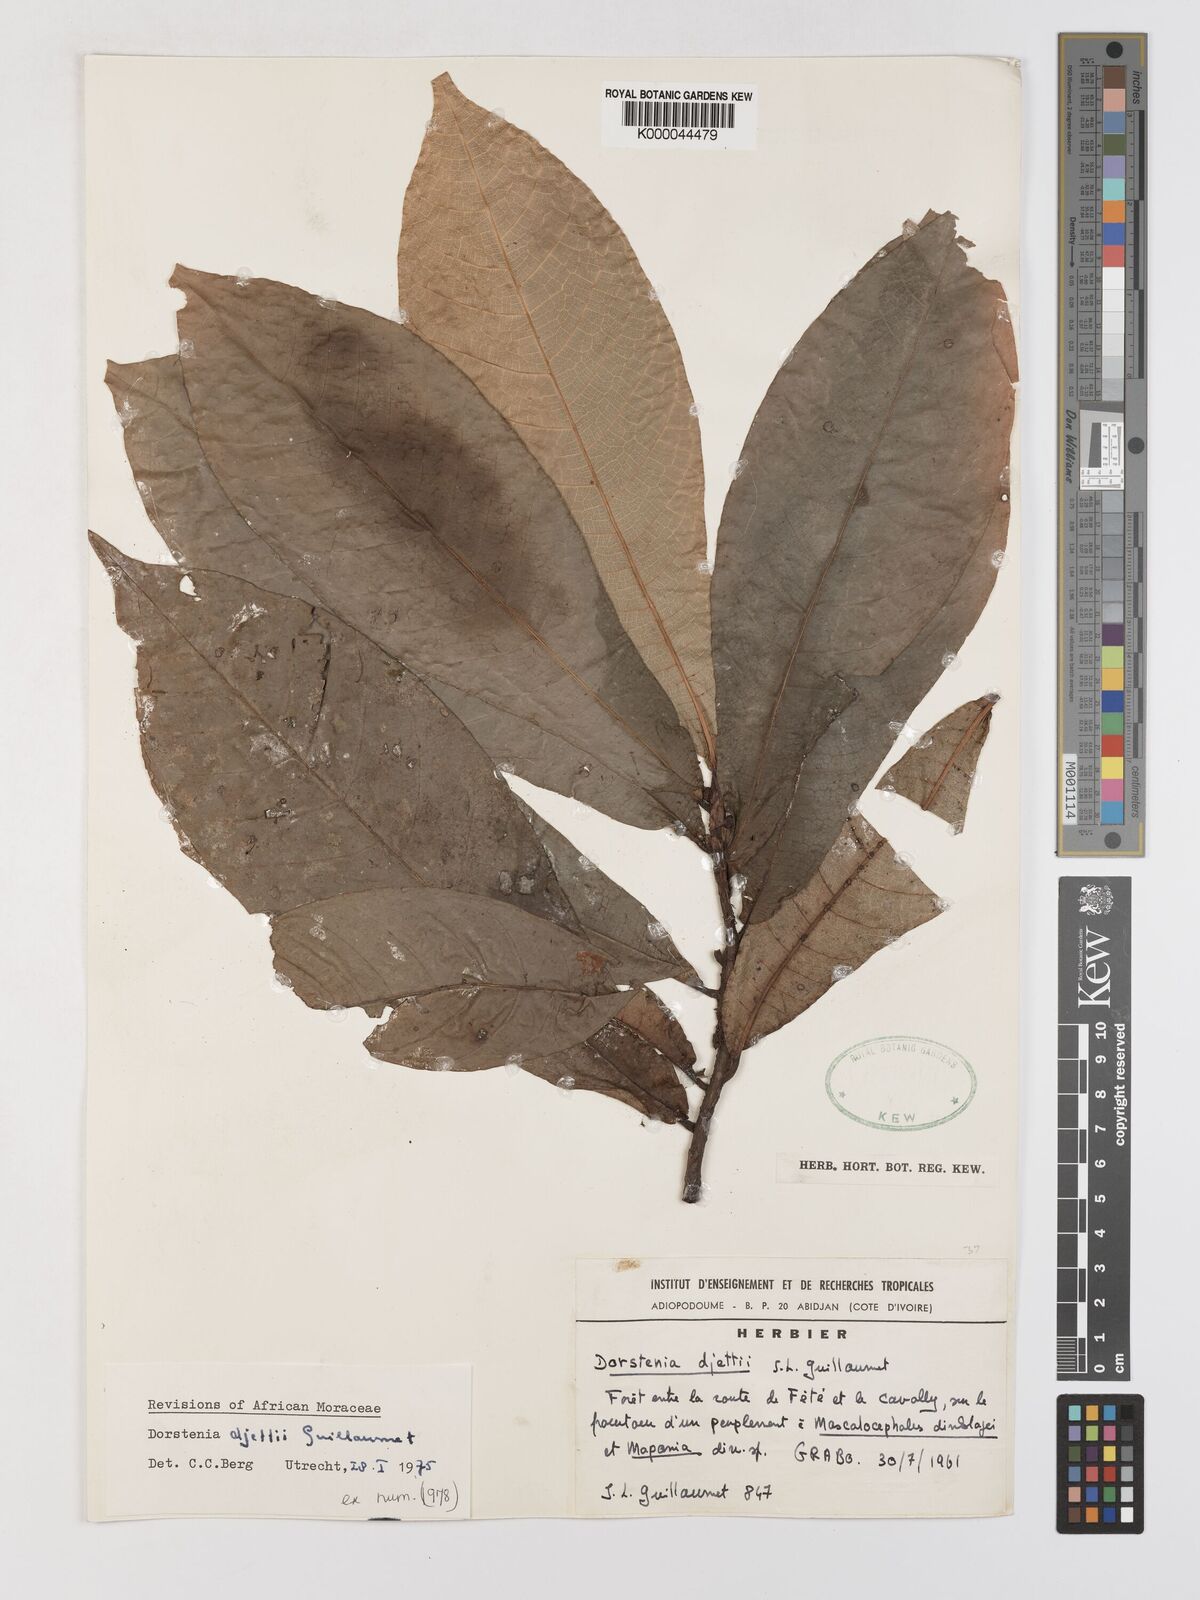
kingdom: Plantae
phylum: Tracheophyta
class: Magnoliopsida
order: Rosales
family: Moraceae
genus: Dorstenia
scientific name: Dorstenia djettii
